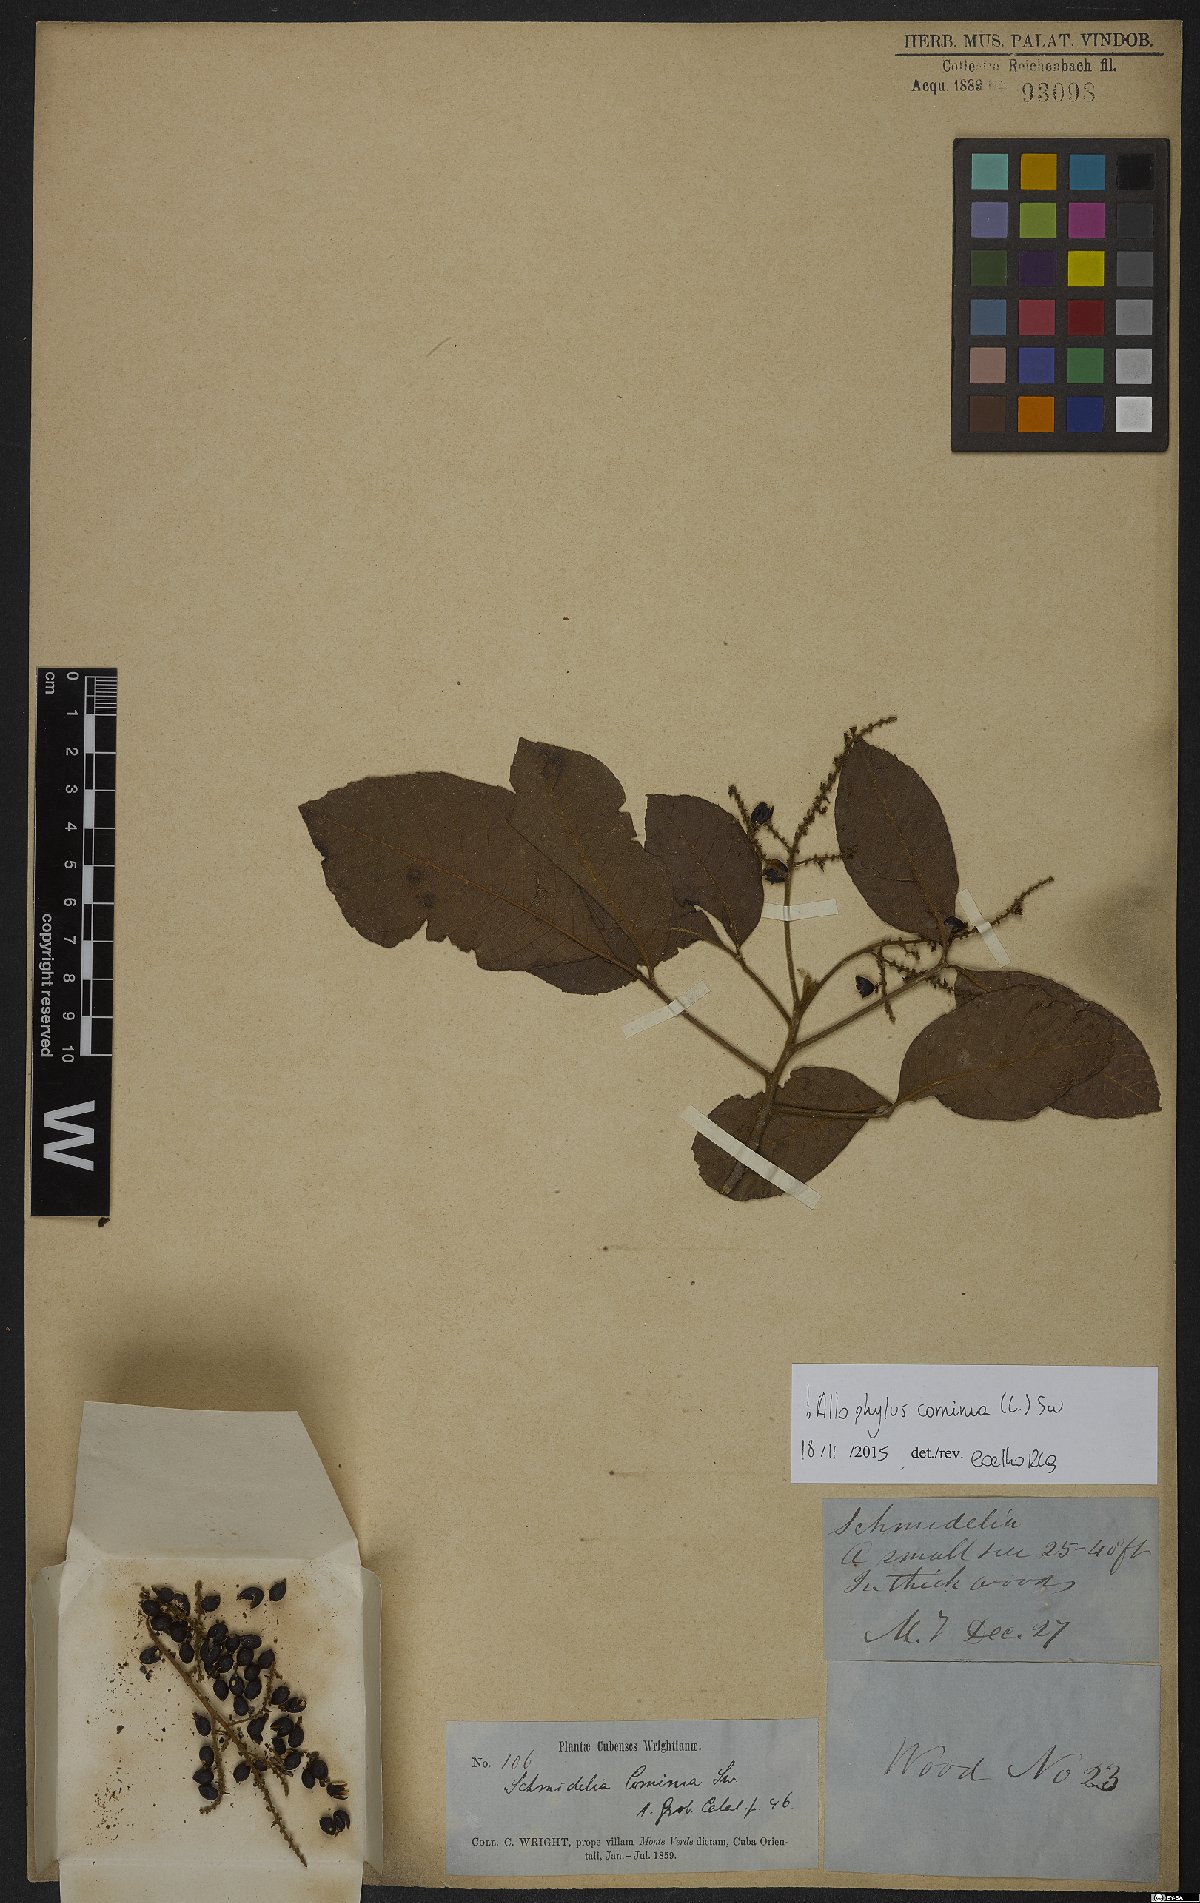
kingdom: Plantae
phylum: Tracheophyta
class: Magnoliopsida
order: Sapindales
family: Sapindaceae
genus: Allophylus
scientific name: Allophylus cominia
